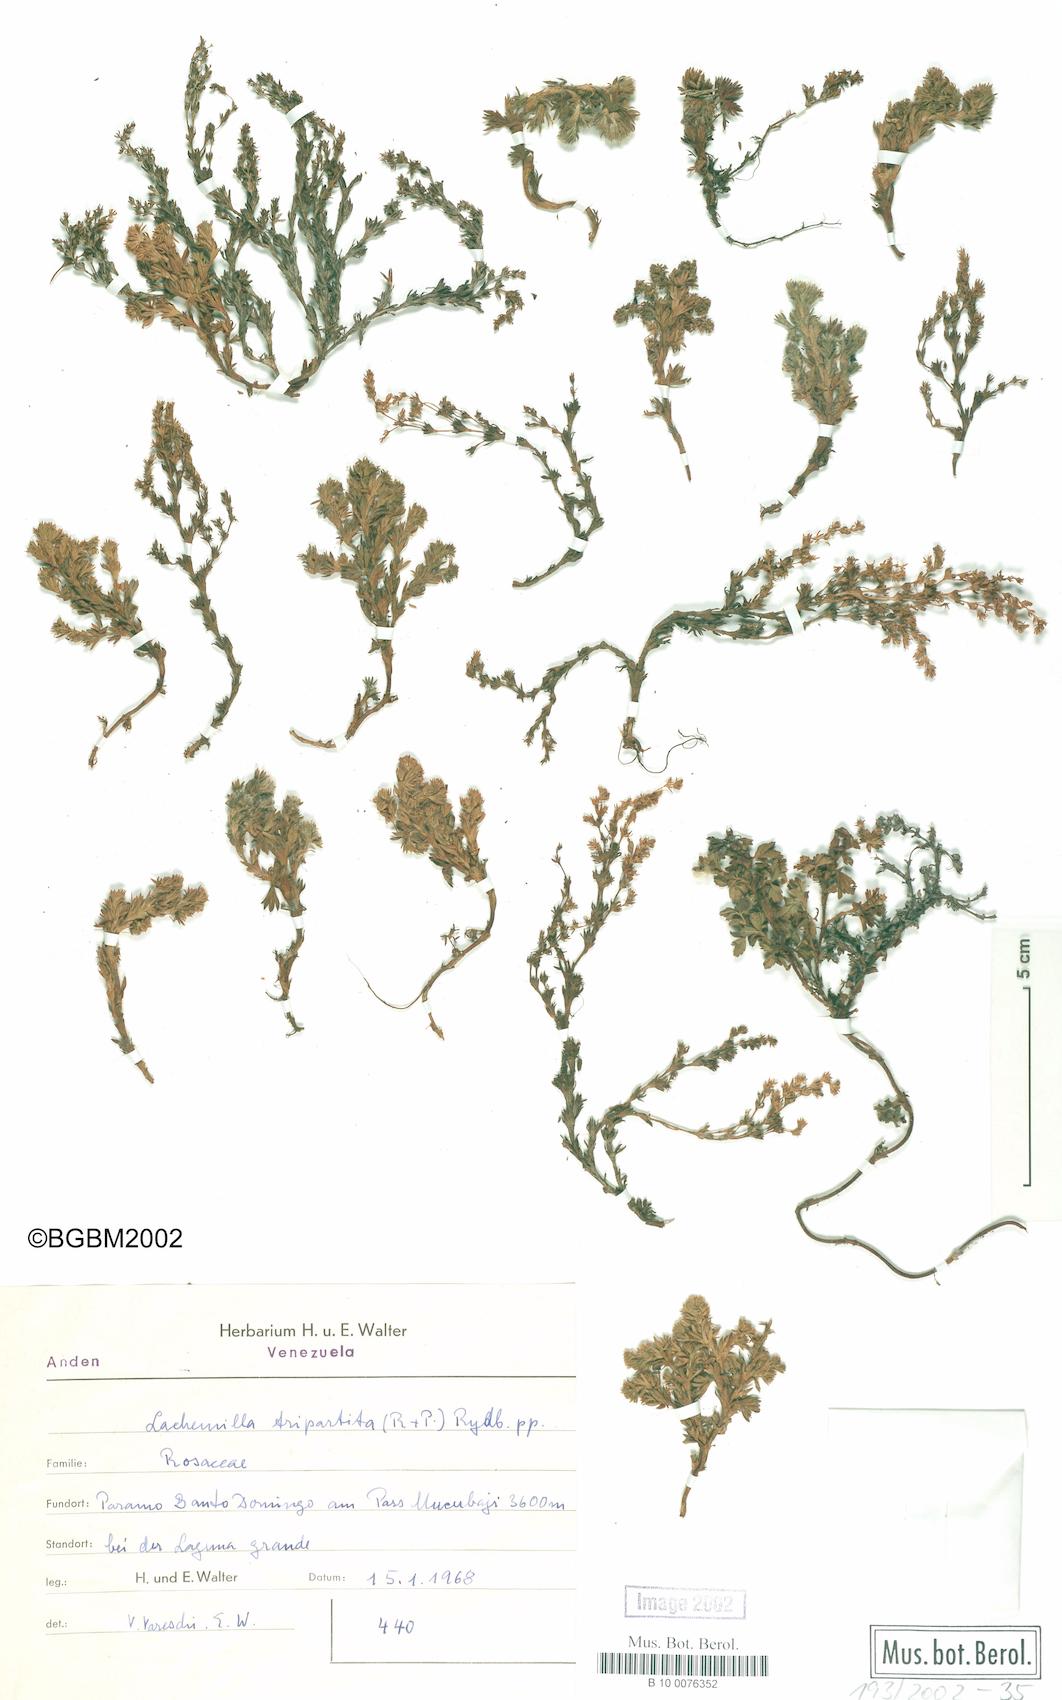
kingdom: Plantae
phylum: Tracheophyta
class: Magnoliopsida
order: Rosales
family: Rosaceae
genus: Lachemilla
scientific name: Lachemilla aphanoides
